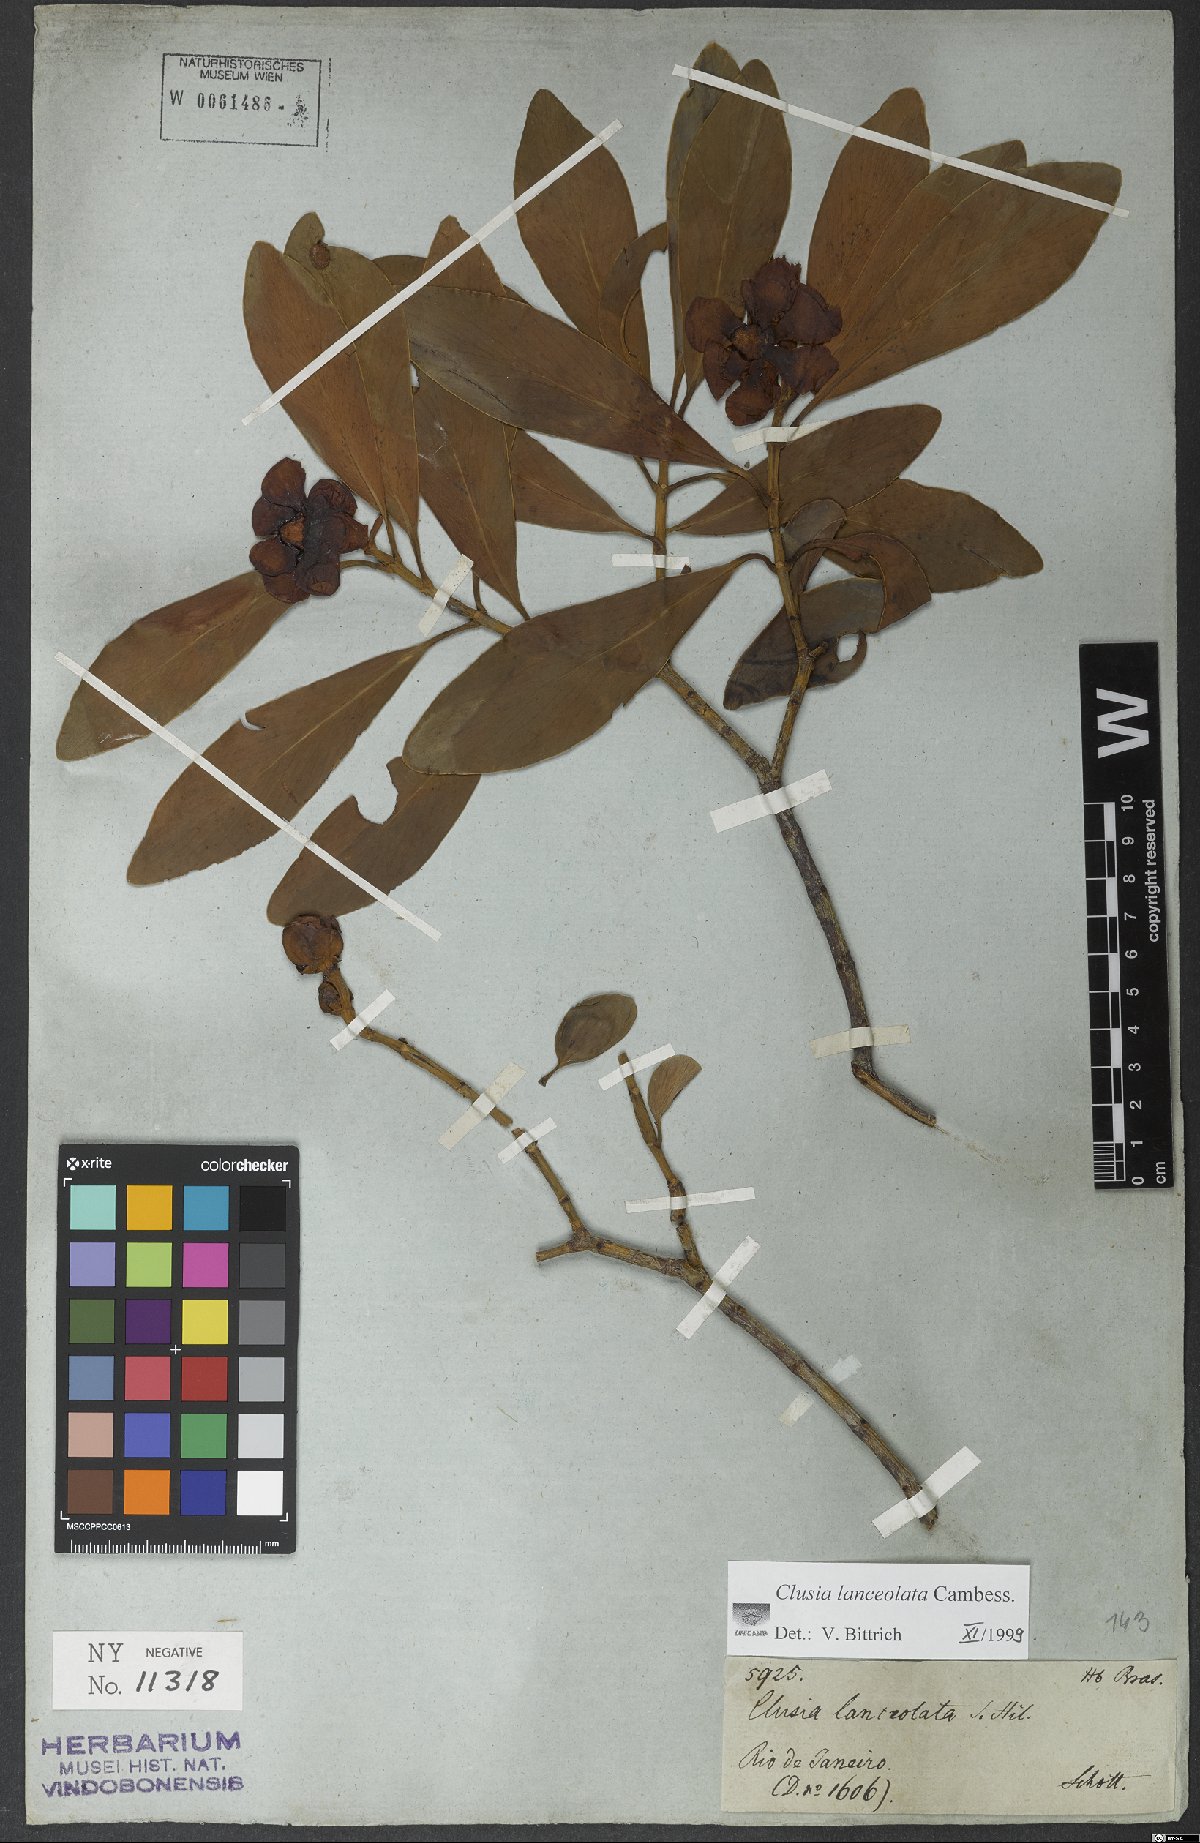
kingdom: Plantae
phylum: Tracheophyta
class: Magnoliopsida
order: Malpighiales
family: Clusiaceae
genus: Clusia
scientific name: Clusia lanceolata
